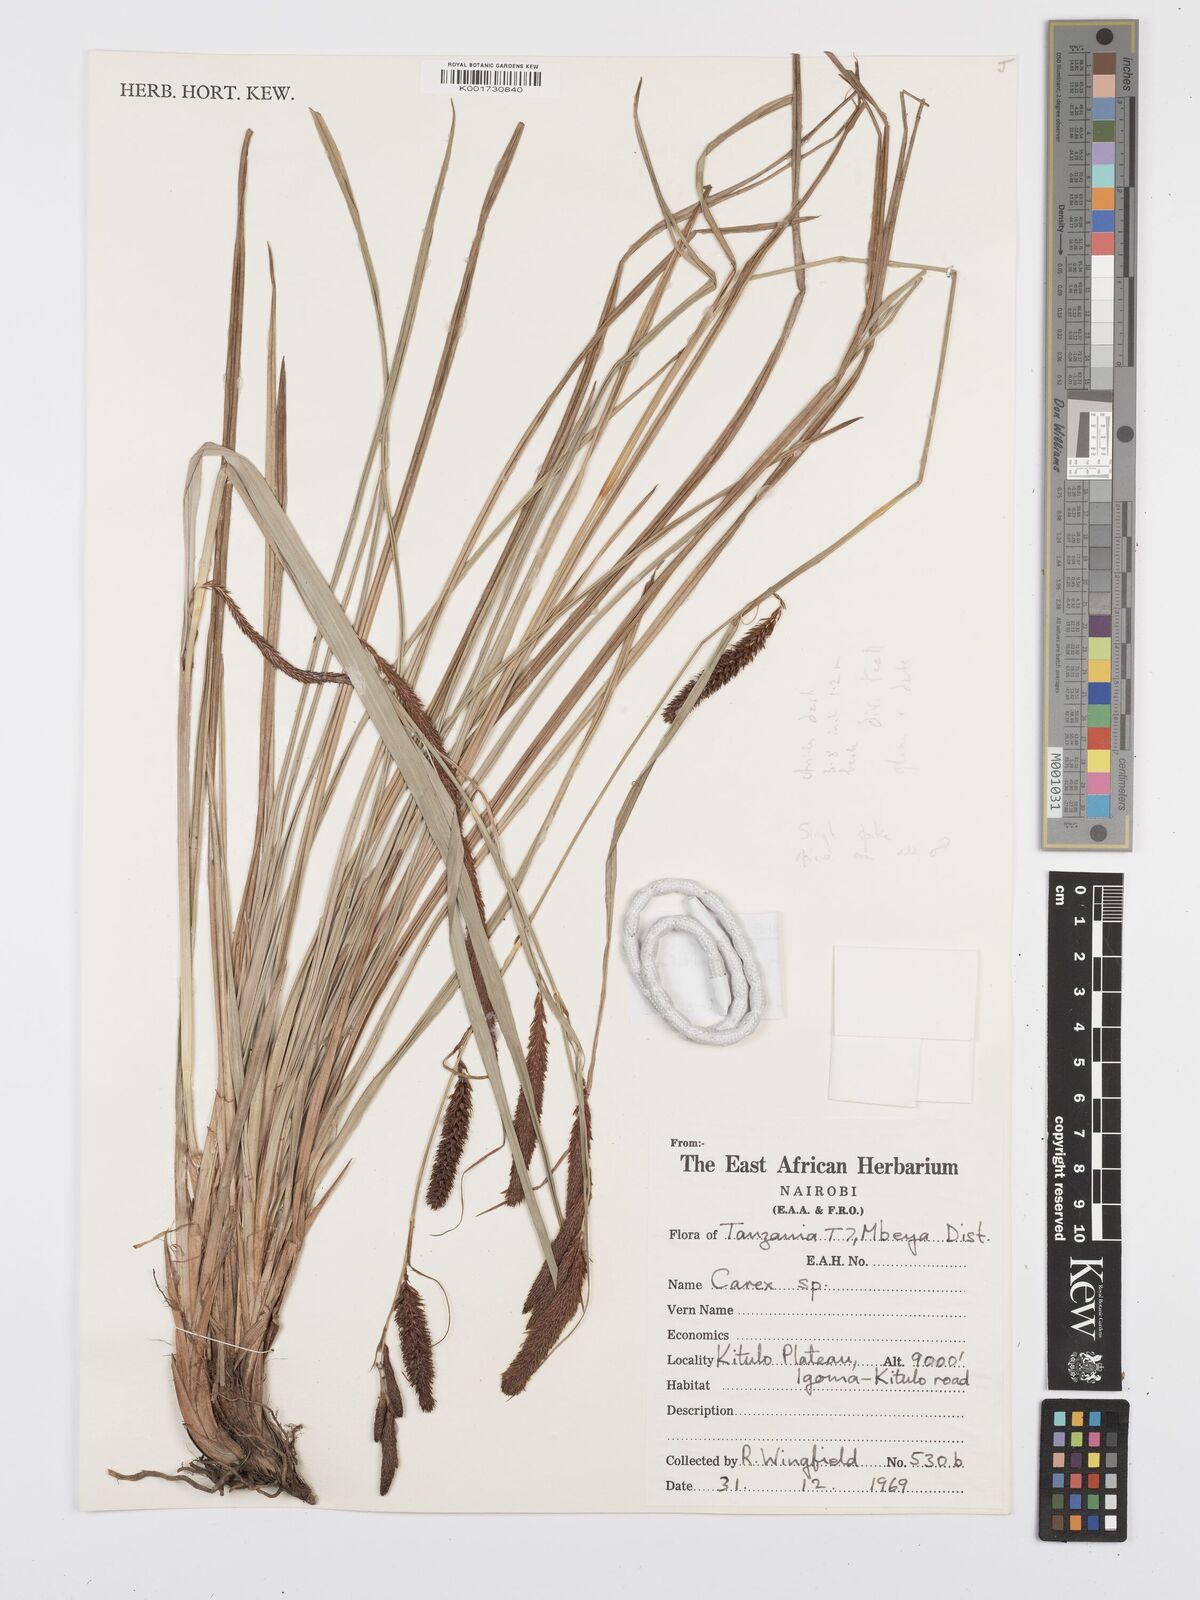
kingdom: Plantae
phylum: Tracheophyta
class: Liliopsida
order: Poales
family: Cyperaceae
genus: Carex
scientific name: Carex elgonensis
